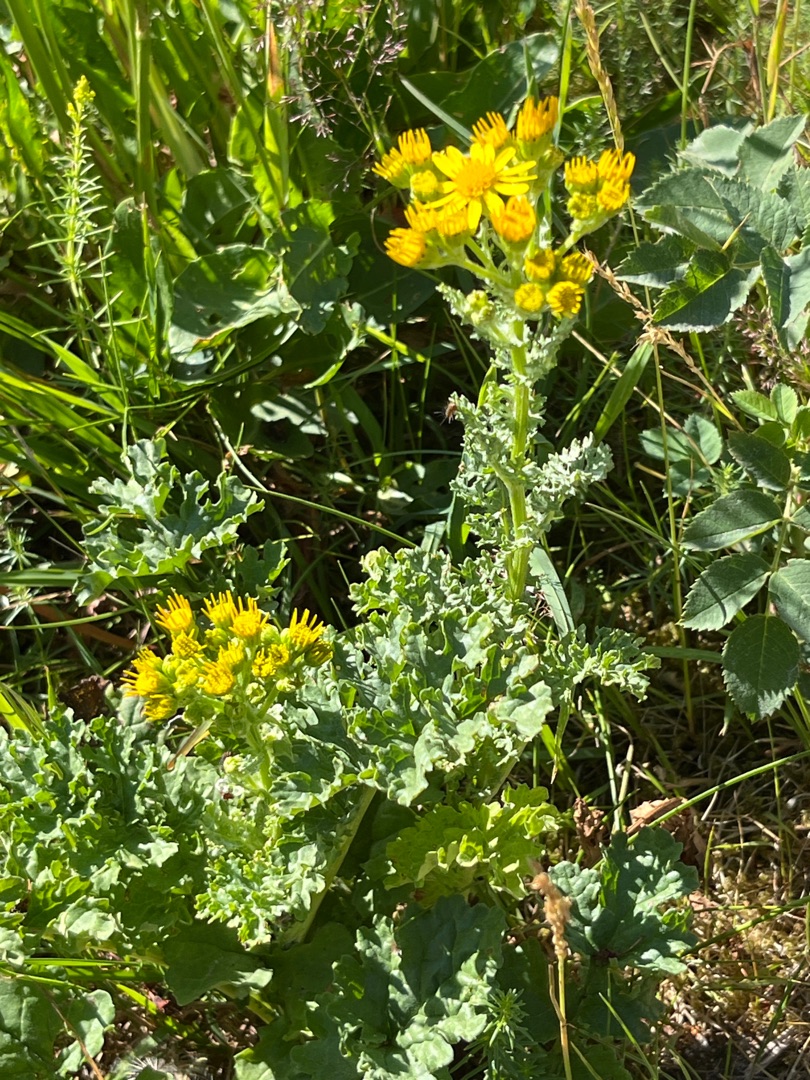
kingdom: Plantae
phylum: Tracheophyta
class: Magnoliopsida
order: Asterales
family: Asteraceae
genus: Jacobaea
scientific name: Jacobaea vulgaris
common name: Eng-brandbæger
